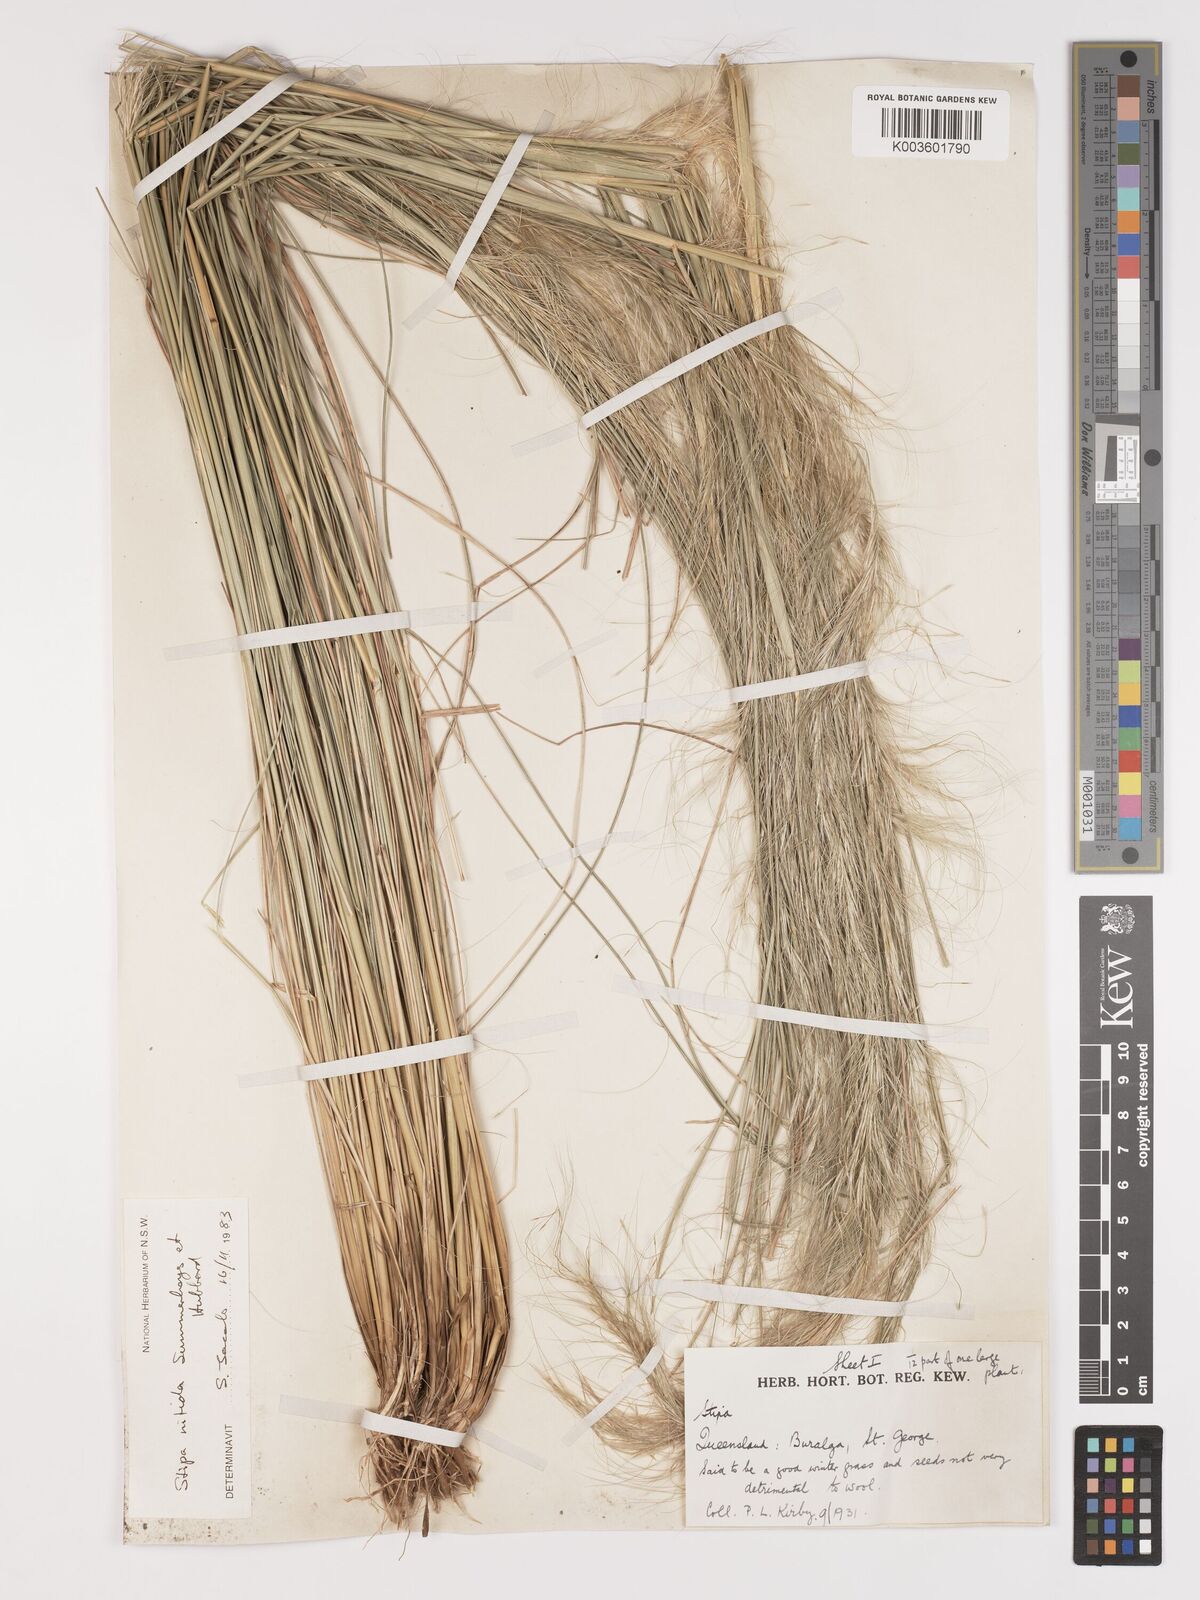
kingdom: Plantae
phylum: Tracheophyta
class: Liliopsida
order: Poales
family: Poaceae
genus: Austrostipa
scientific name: Austrostipa nitida
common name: Balcarra grass
